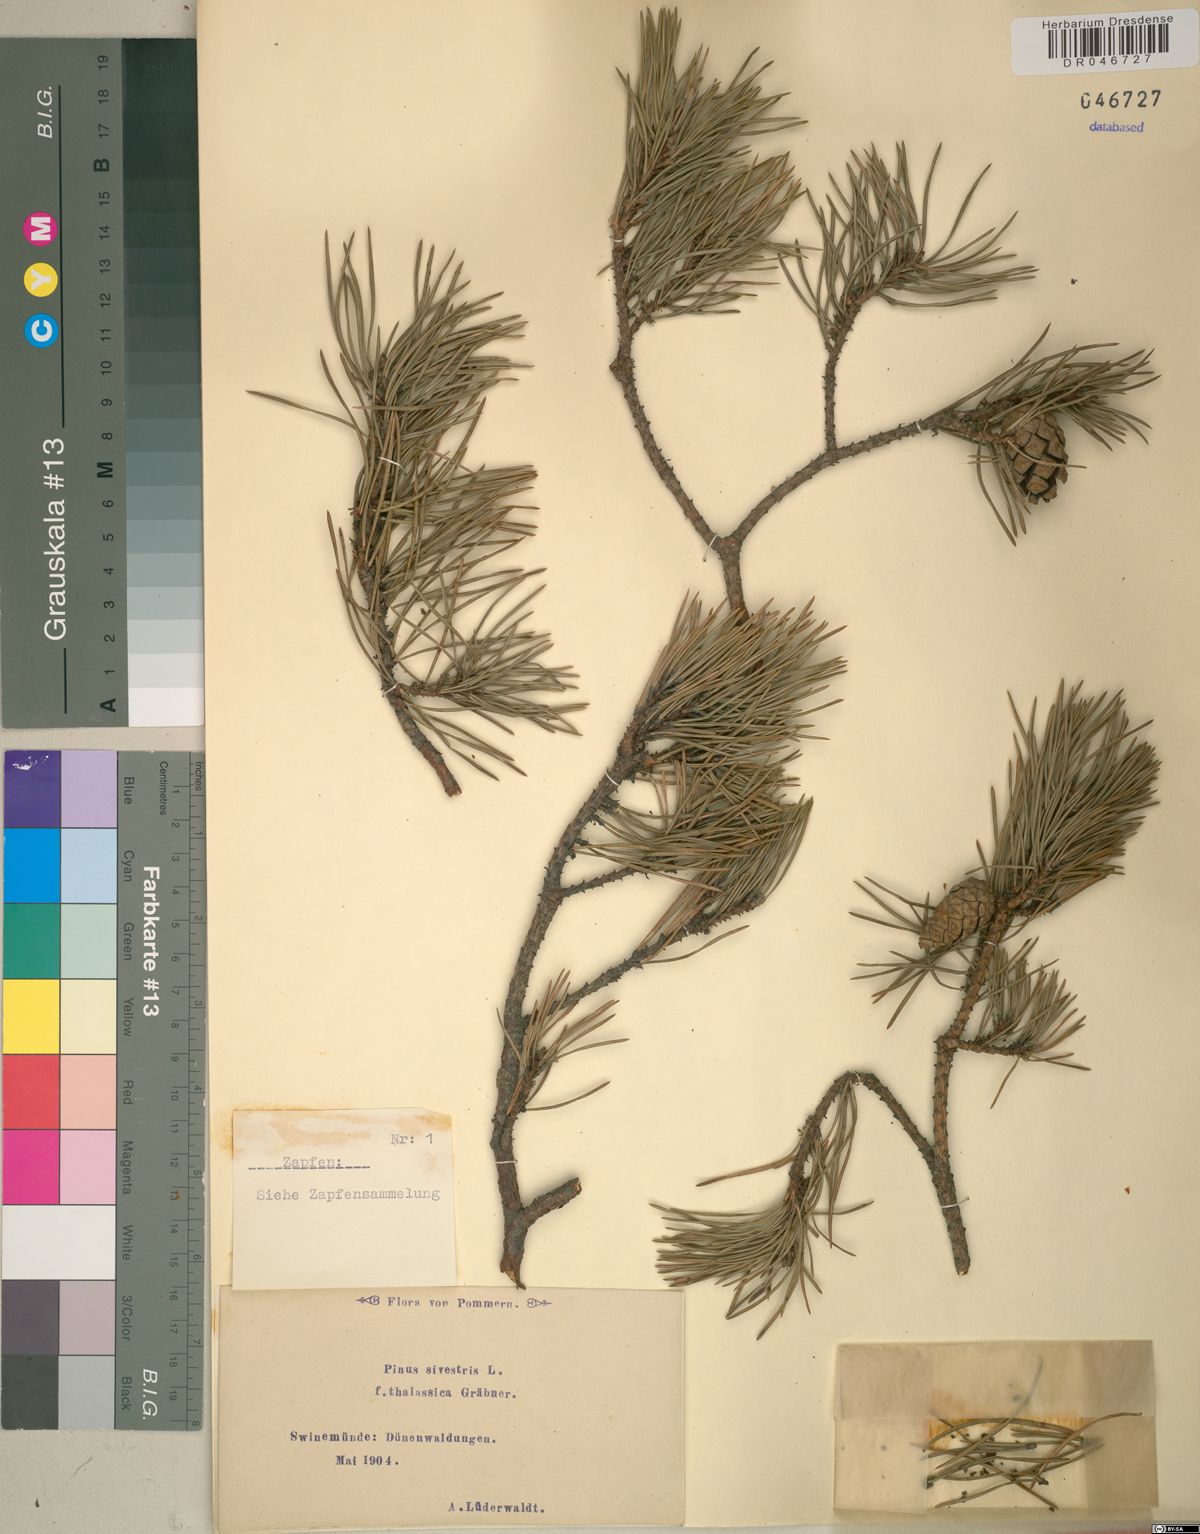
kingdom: Plantae
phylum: Tracheophyta
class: Pinopsida
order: Pinales
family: Pinaceae
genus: Pinus
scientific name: Pinus sylvestris
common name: Scots pine
